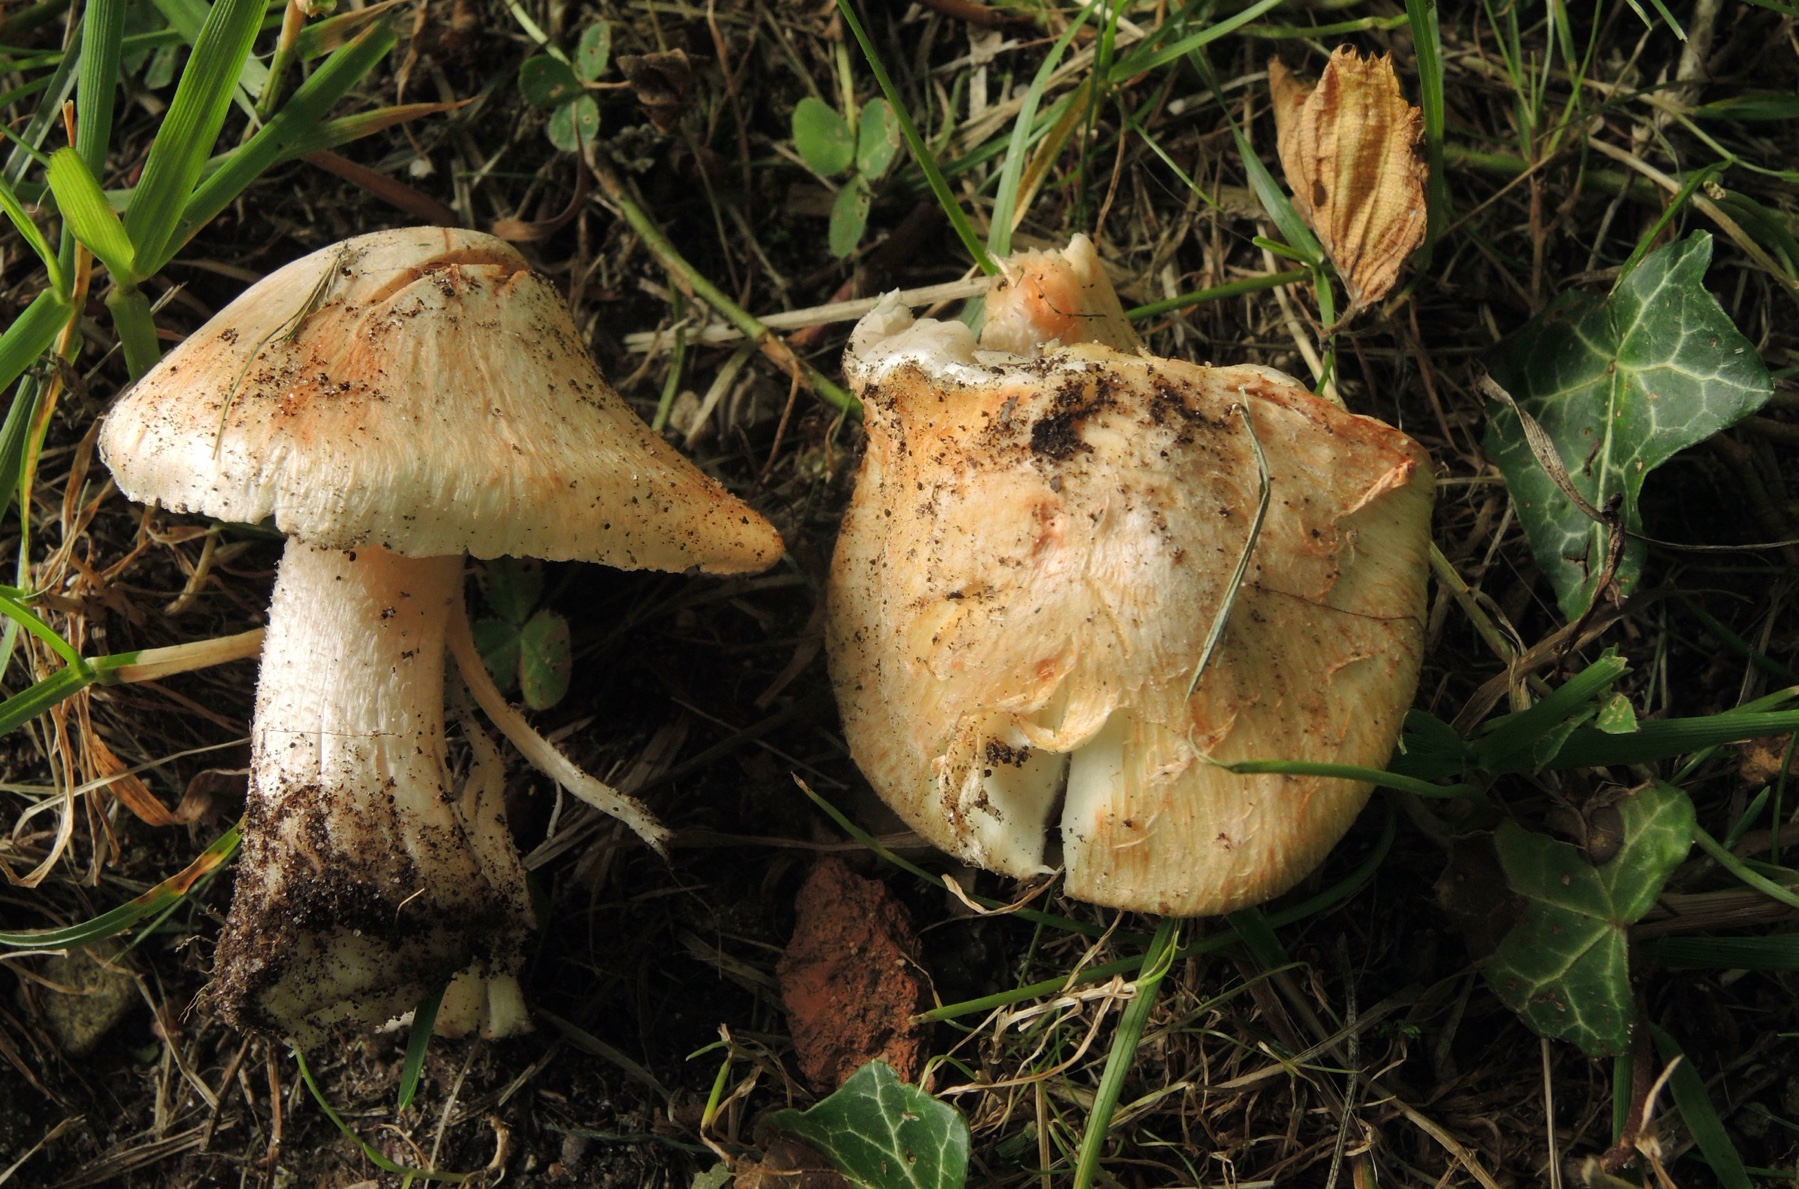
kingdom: Fungi
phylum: Basidiomycota
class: Agaricomycetes
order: Agaricales
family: Inocybaceae
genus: Inosperma
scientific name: Inosperma erubescens
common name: giftig trævlhat
